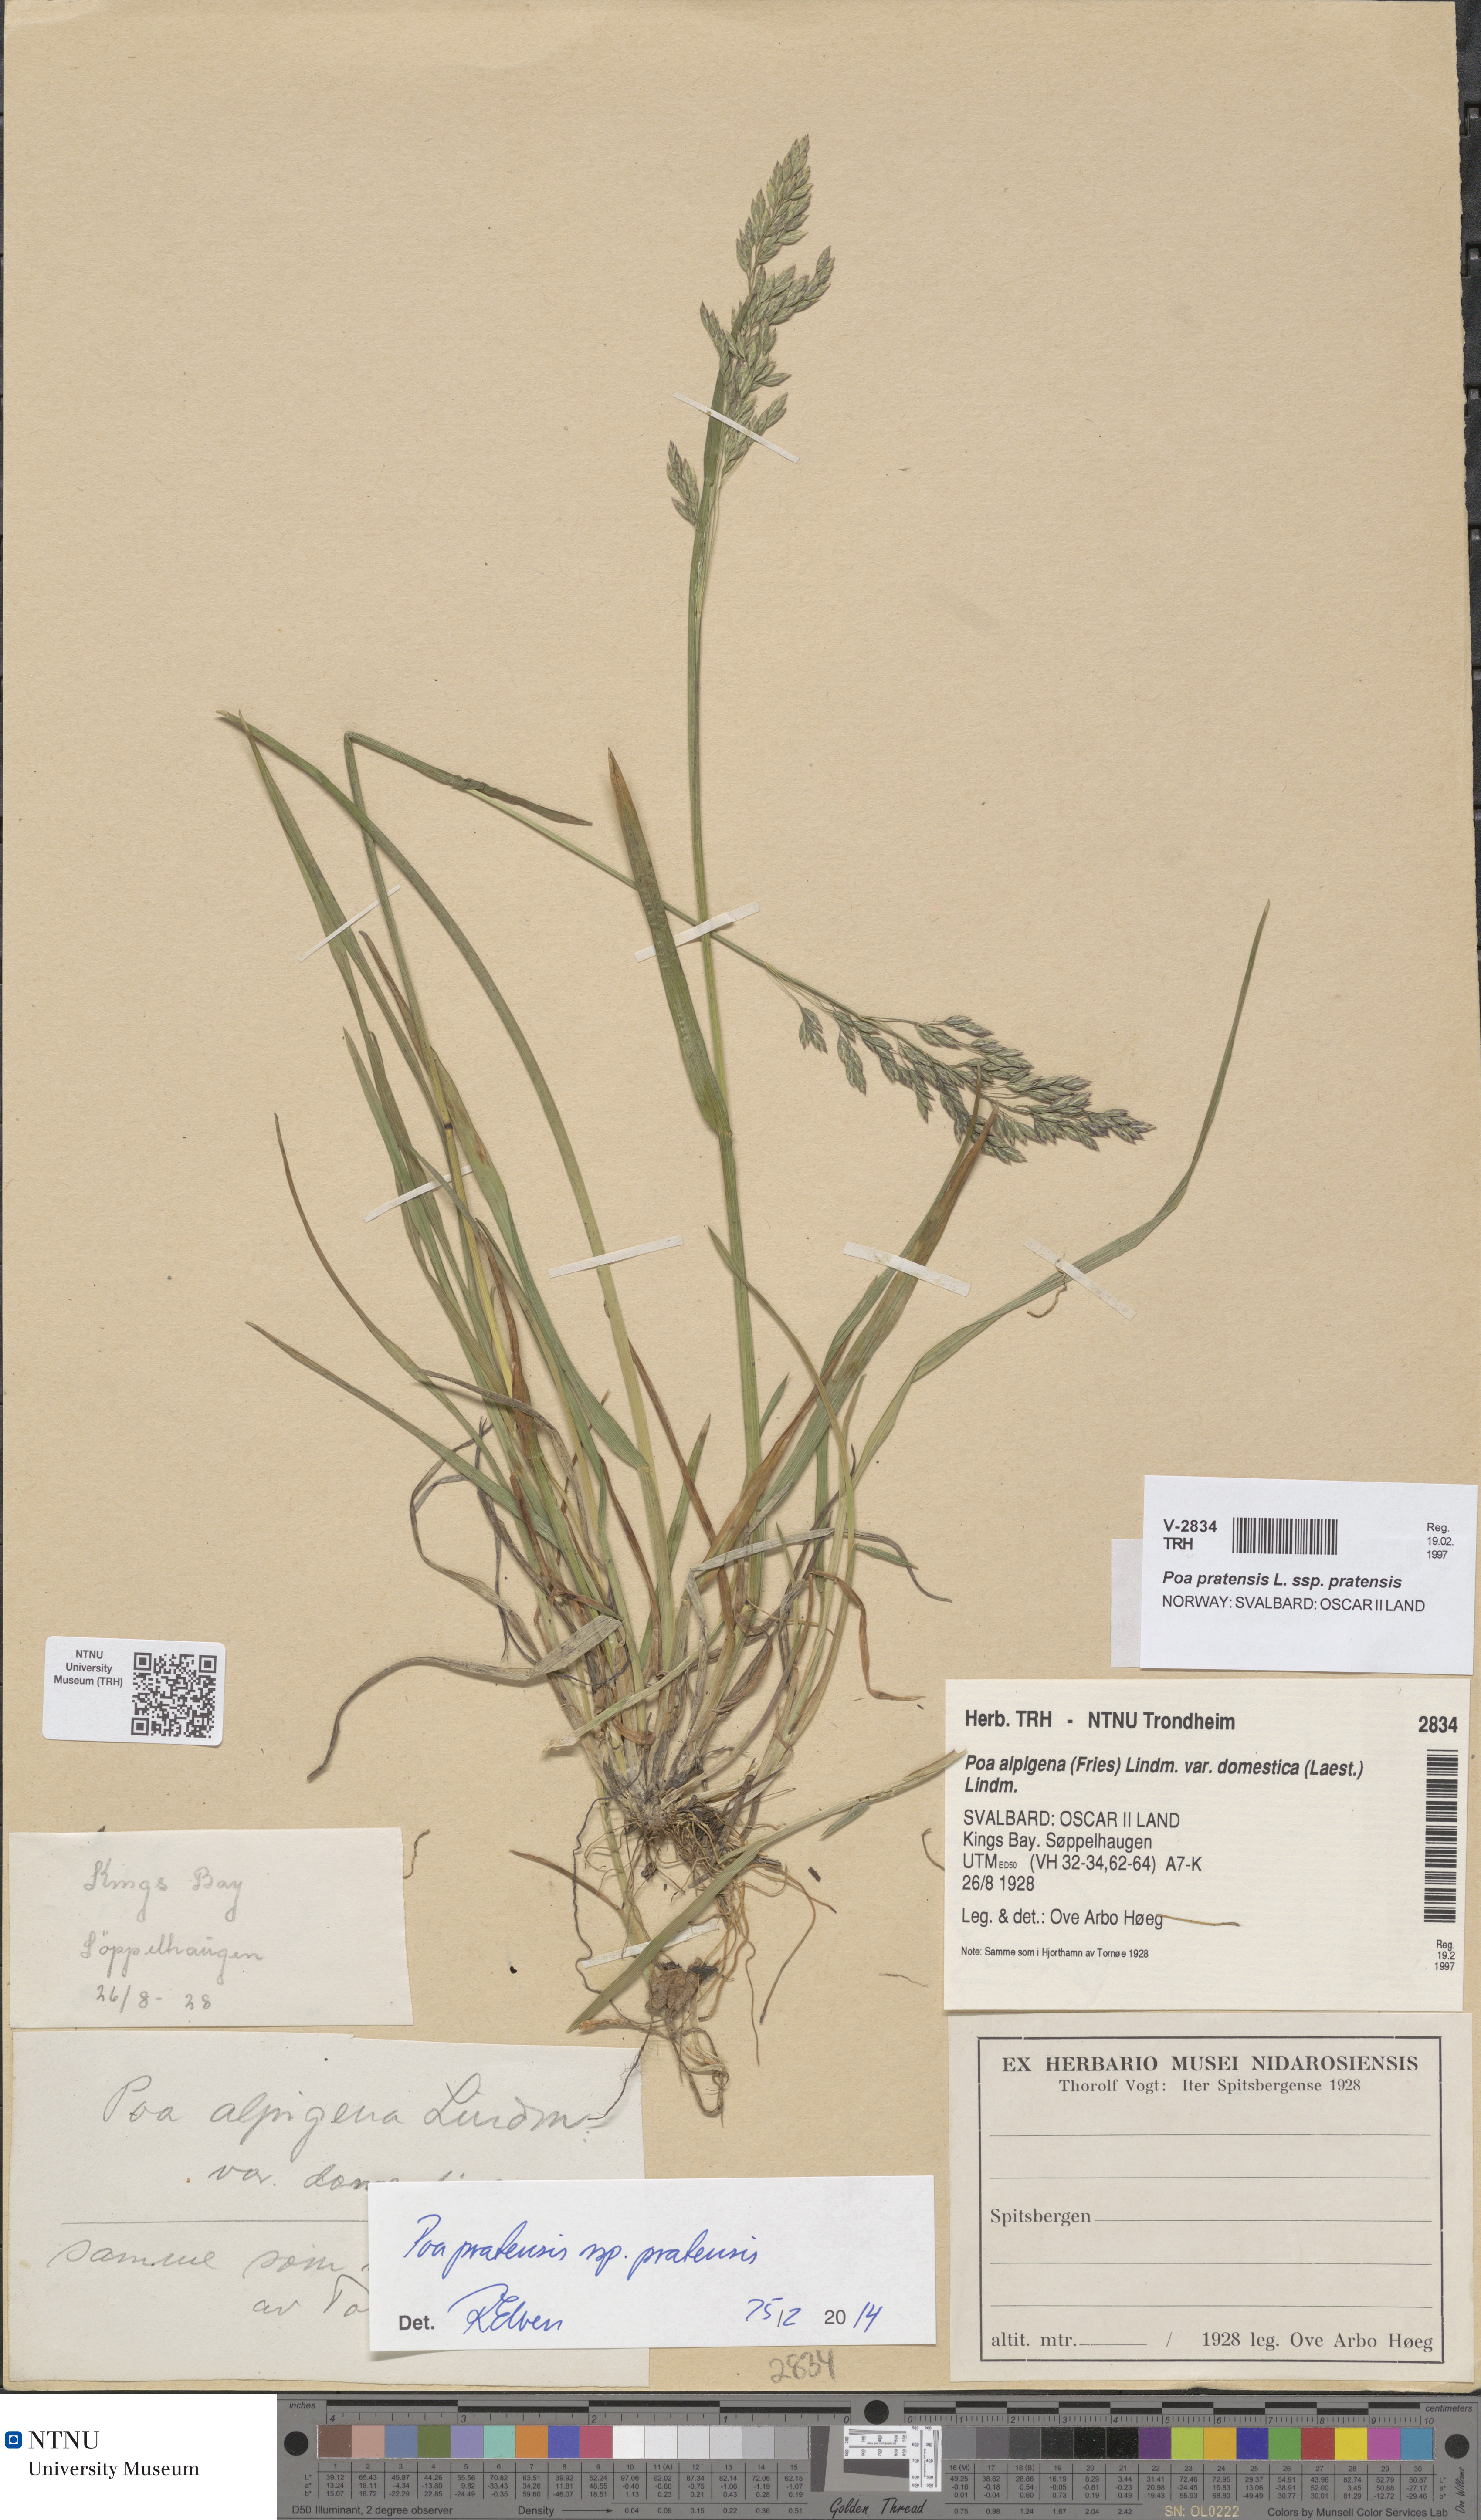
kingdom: Plantae
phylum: Tracheophyta
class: Liliopsida
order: Poales
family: Poaceae
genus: Poa
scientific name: Poa pratensis
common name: Kentucky bluegrass
